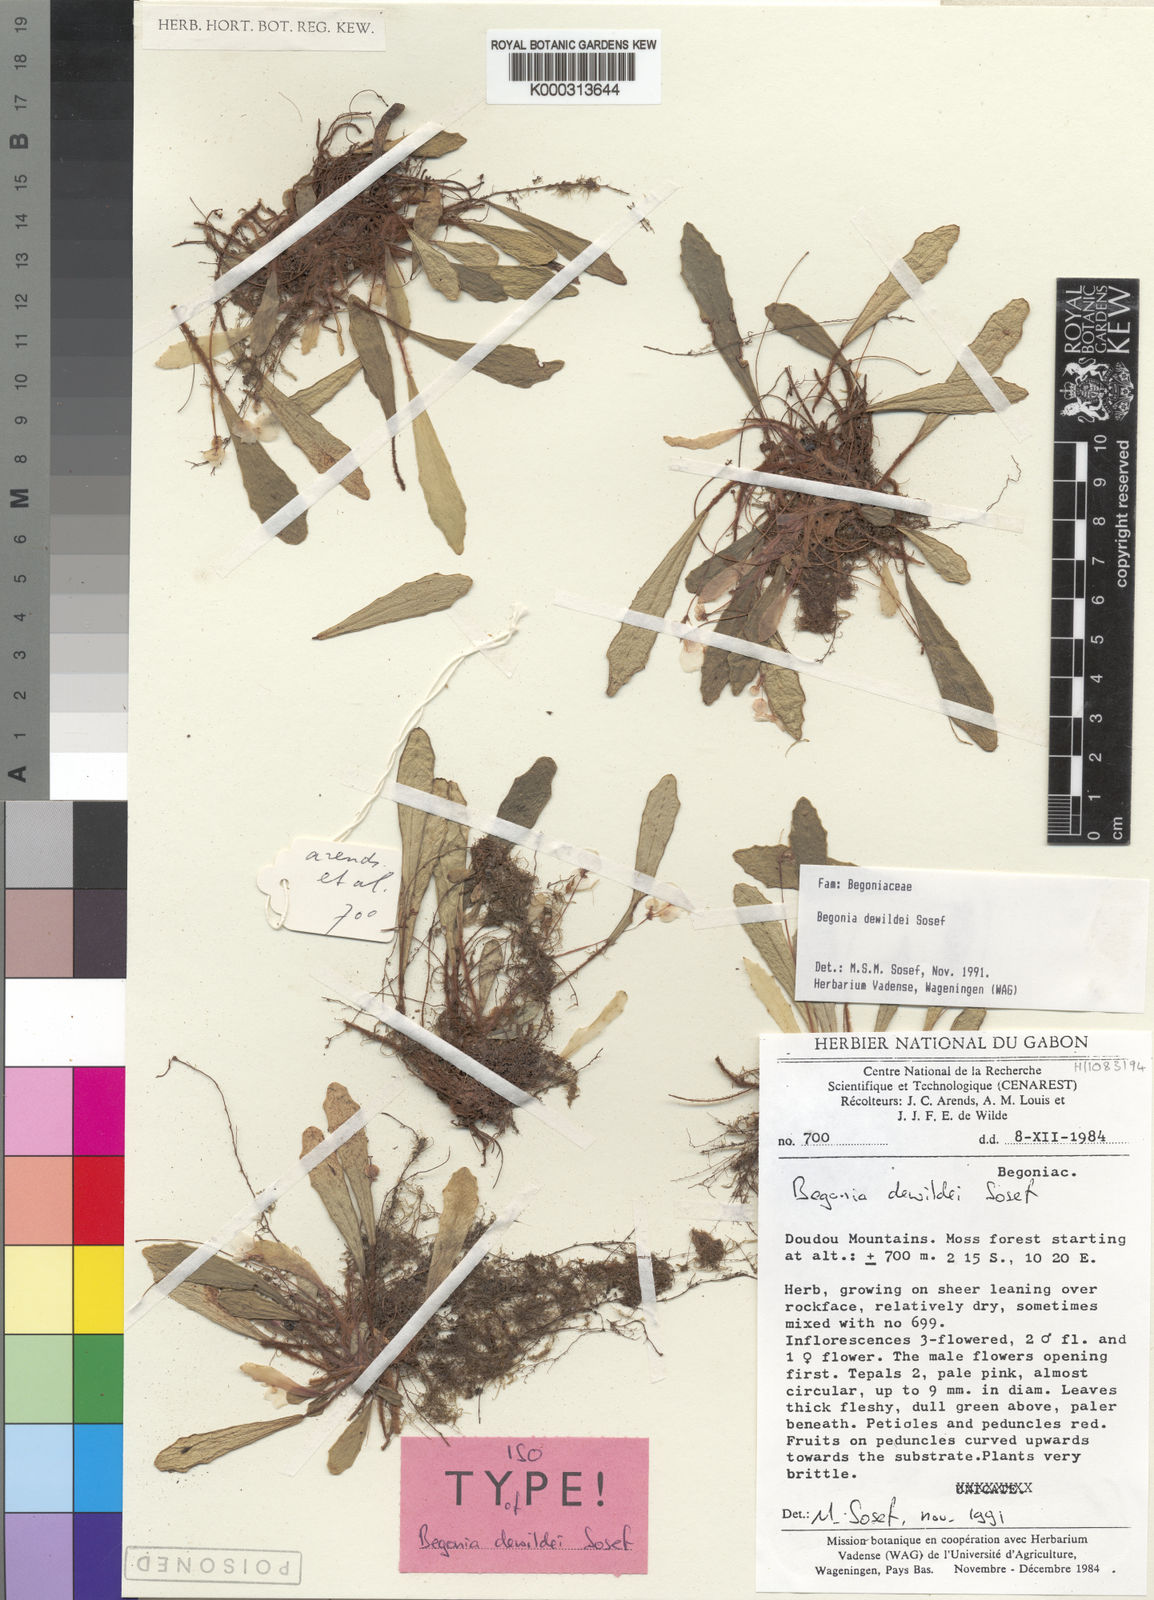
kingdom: Plantae
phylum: Tracheophyta
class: Magnoliopsida
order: Cucurbitales
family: Begoniaceae
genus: Begonia
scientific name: Begonia dewildei
